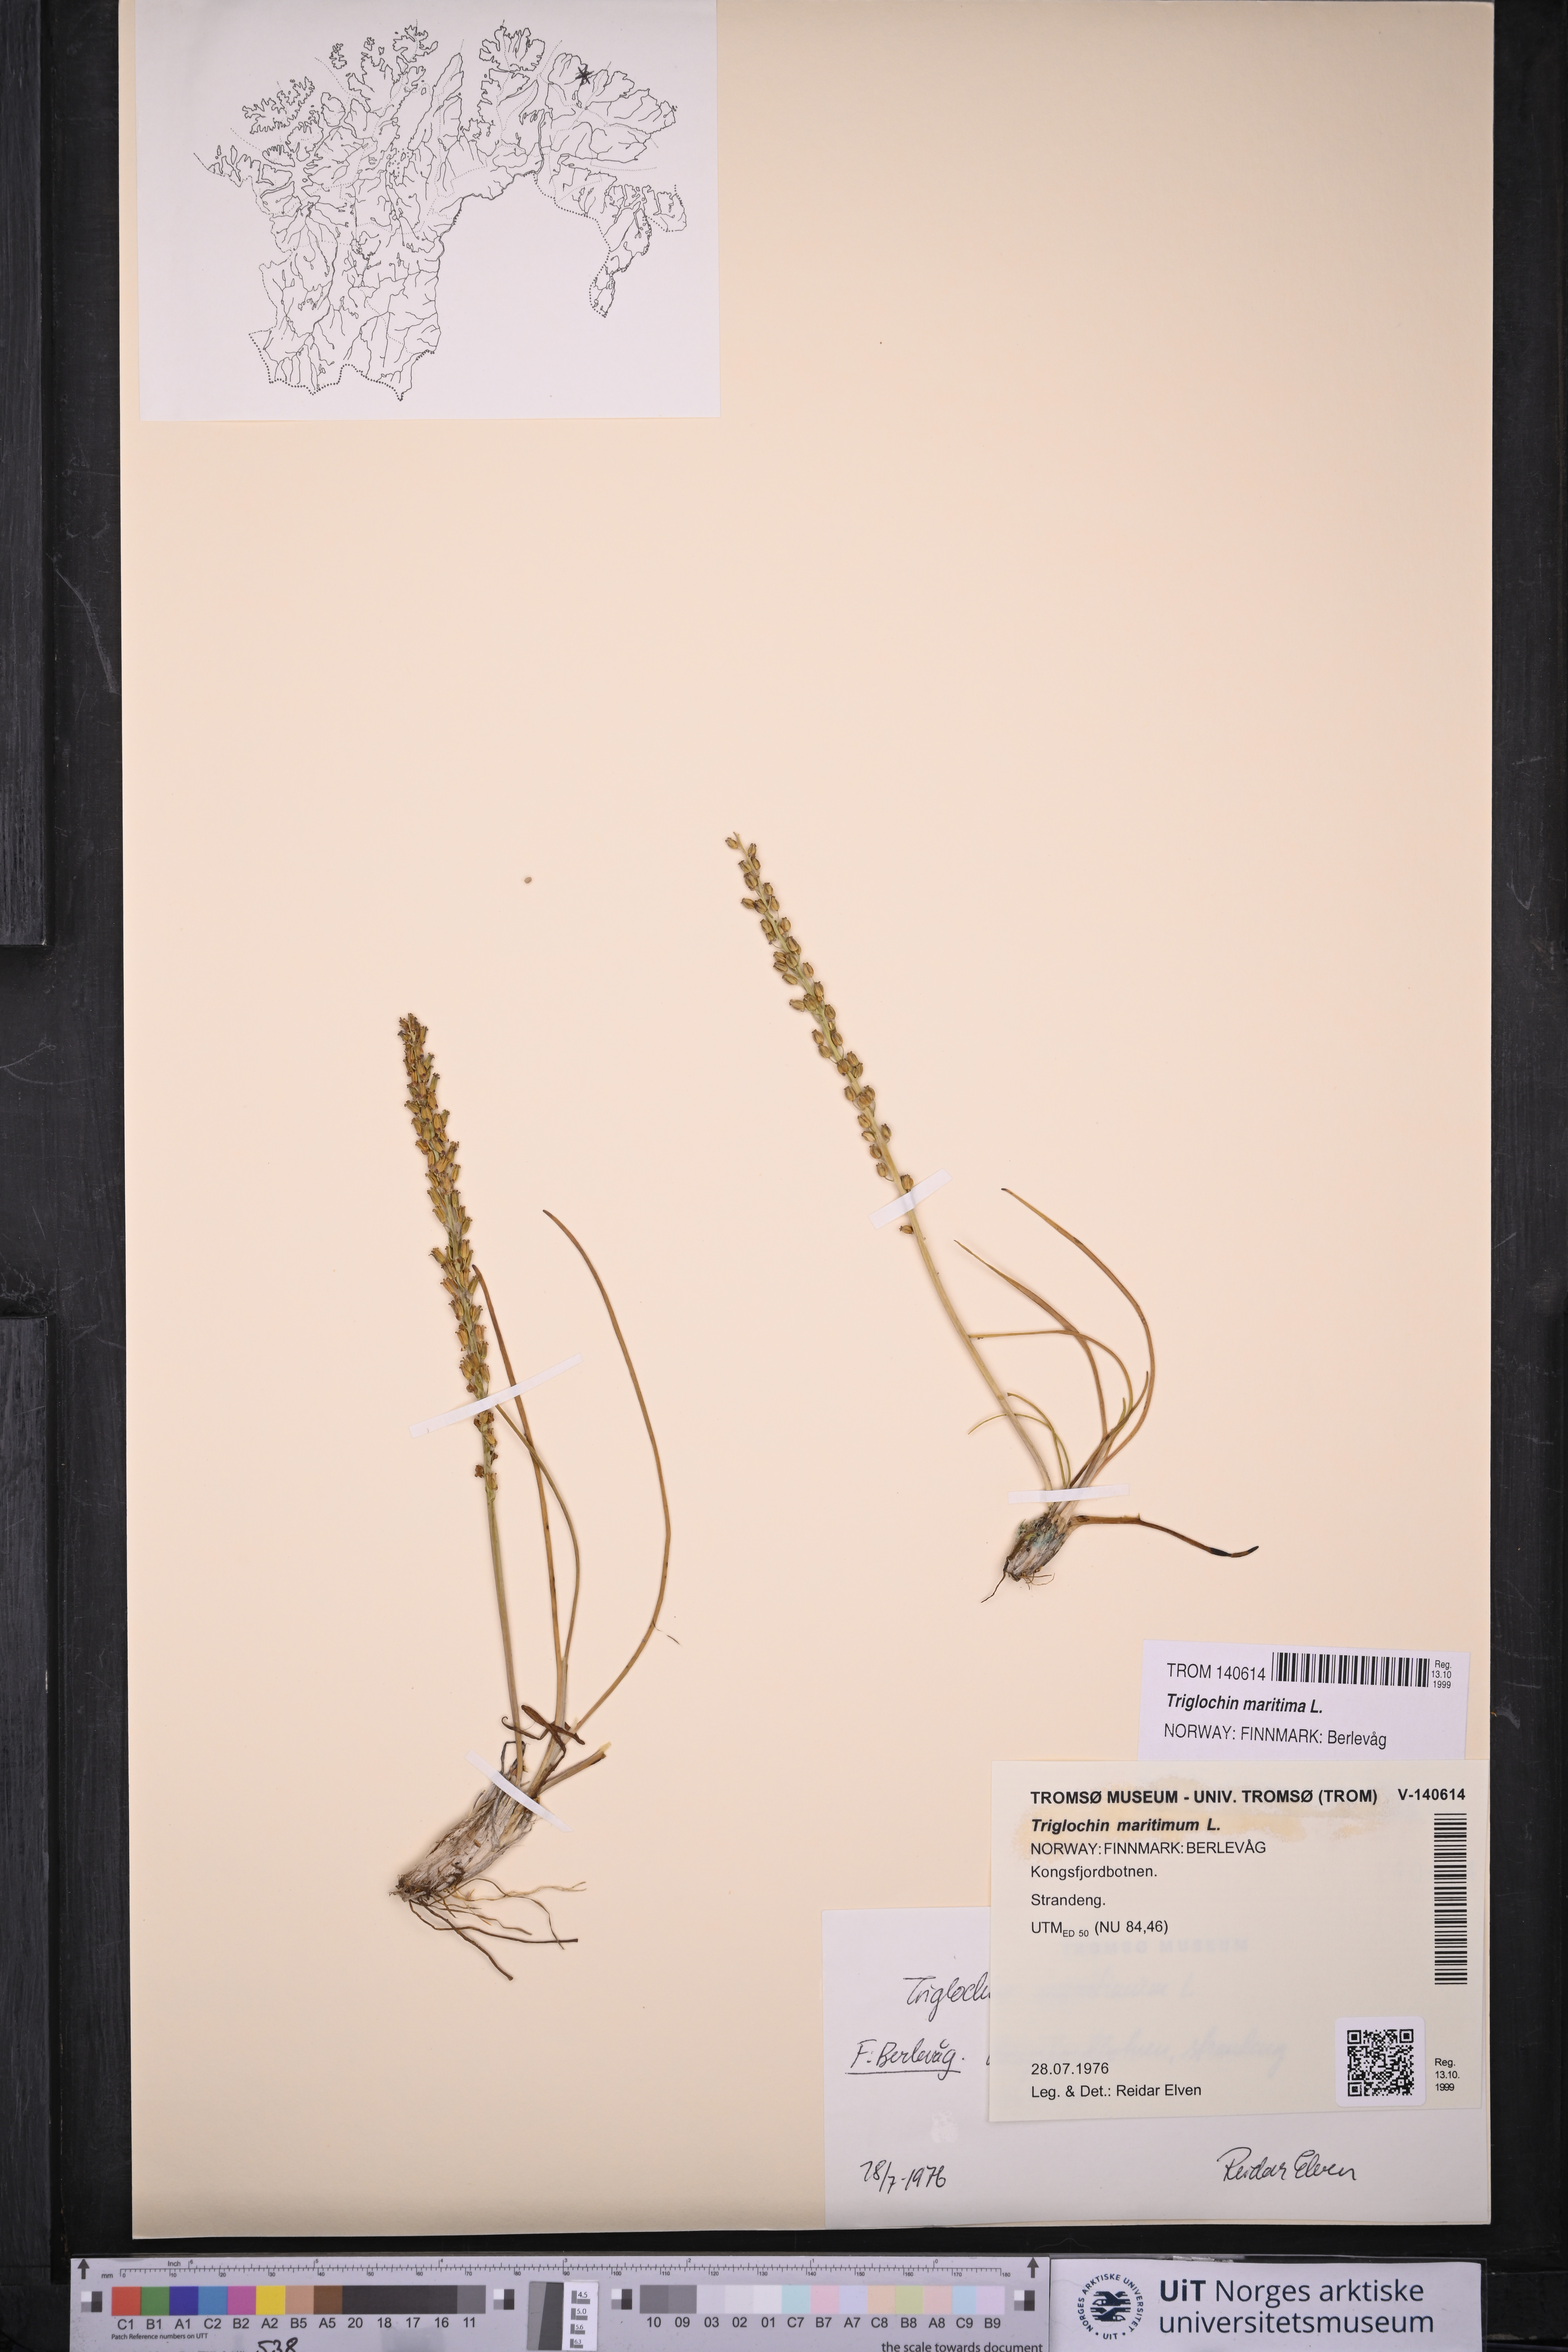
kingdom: Plantae
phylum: Tracheophyta
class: Liliopsida
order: Alismatales
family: Juncaginaceae
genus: Triglochin
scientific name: Triglochin maritima
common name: Sea arrowgrass
